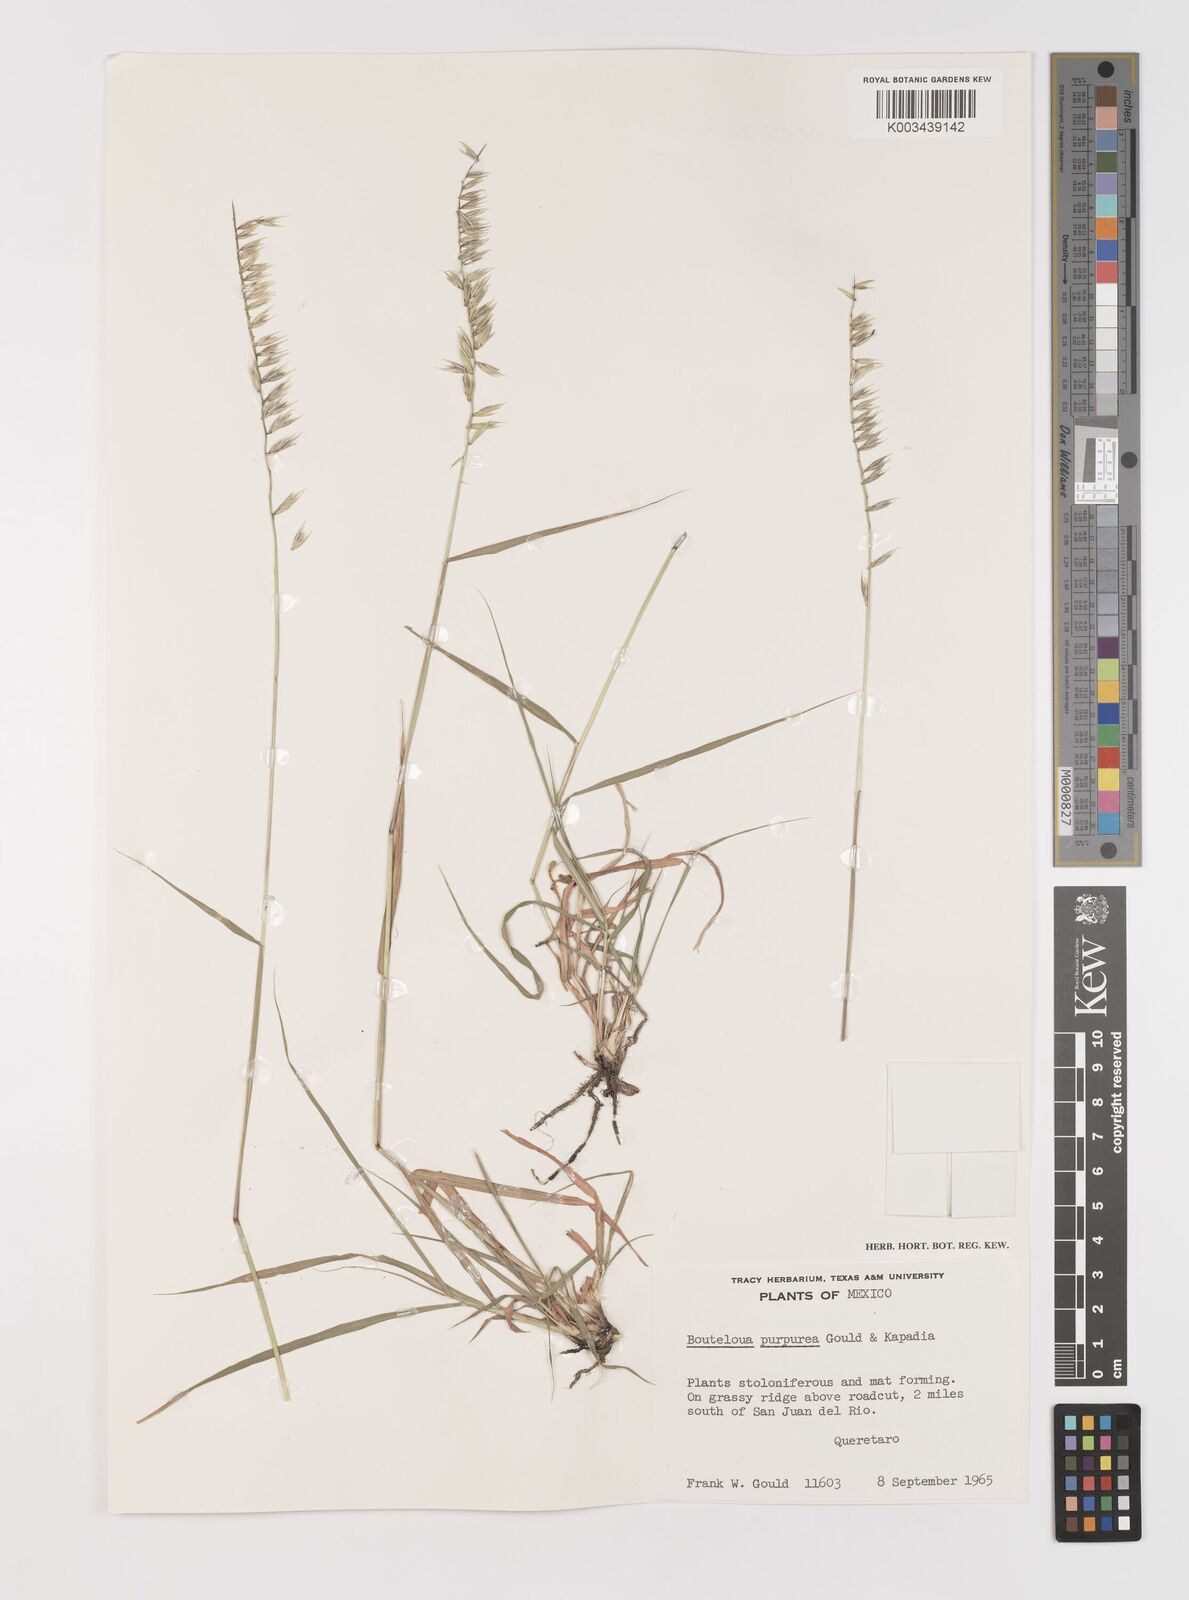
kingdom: Plantae
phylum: Tracheophyta
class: Liliopsida
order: Poales
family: Poaceae
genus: Bouteloua
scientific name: Bouteloua purpurea
